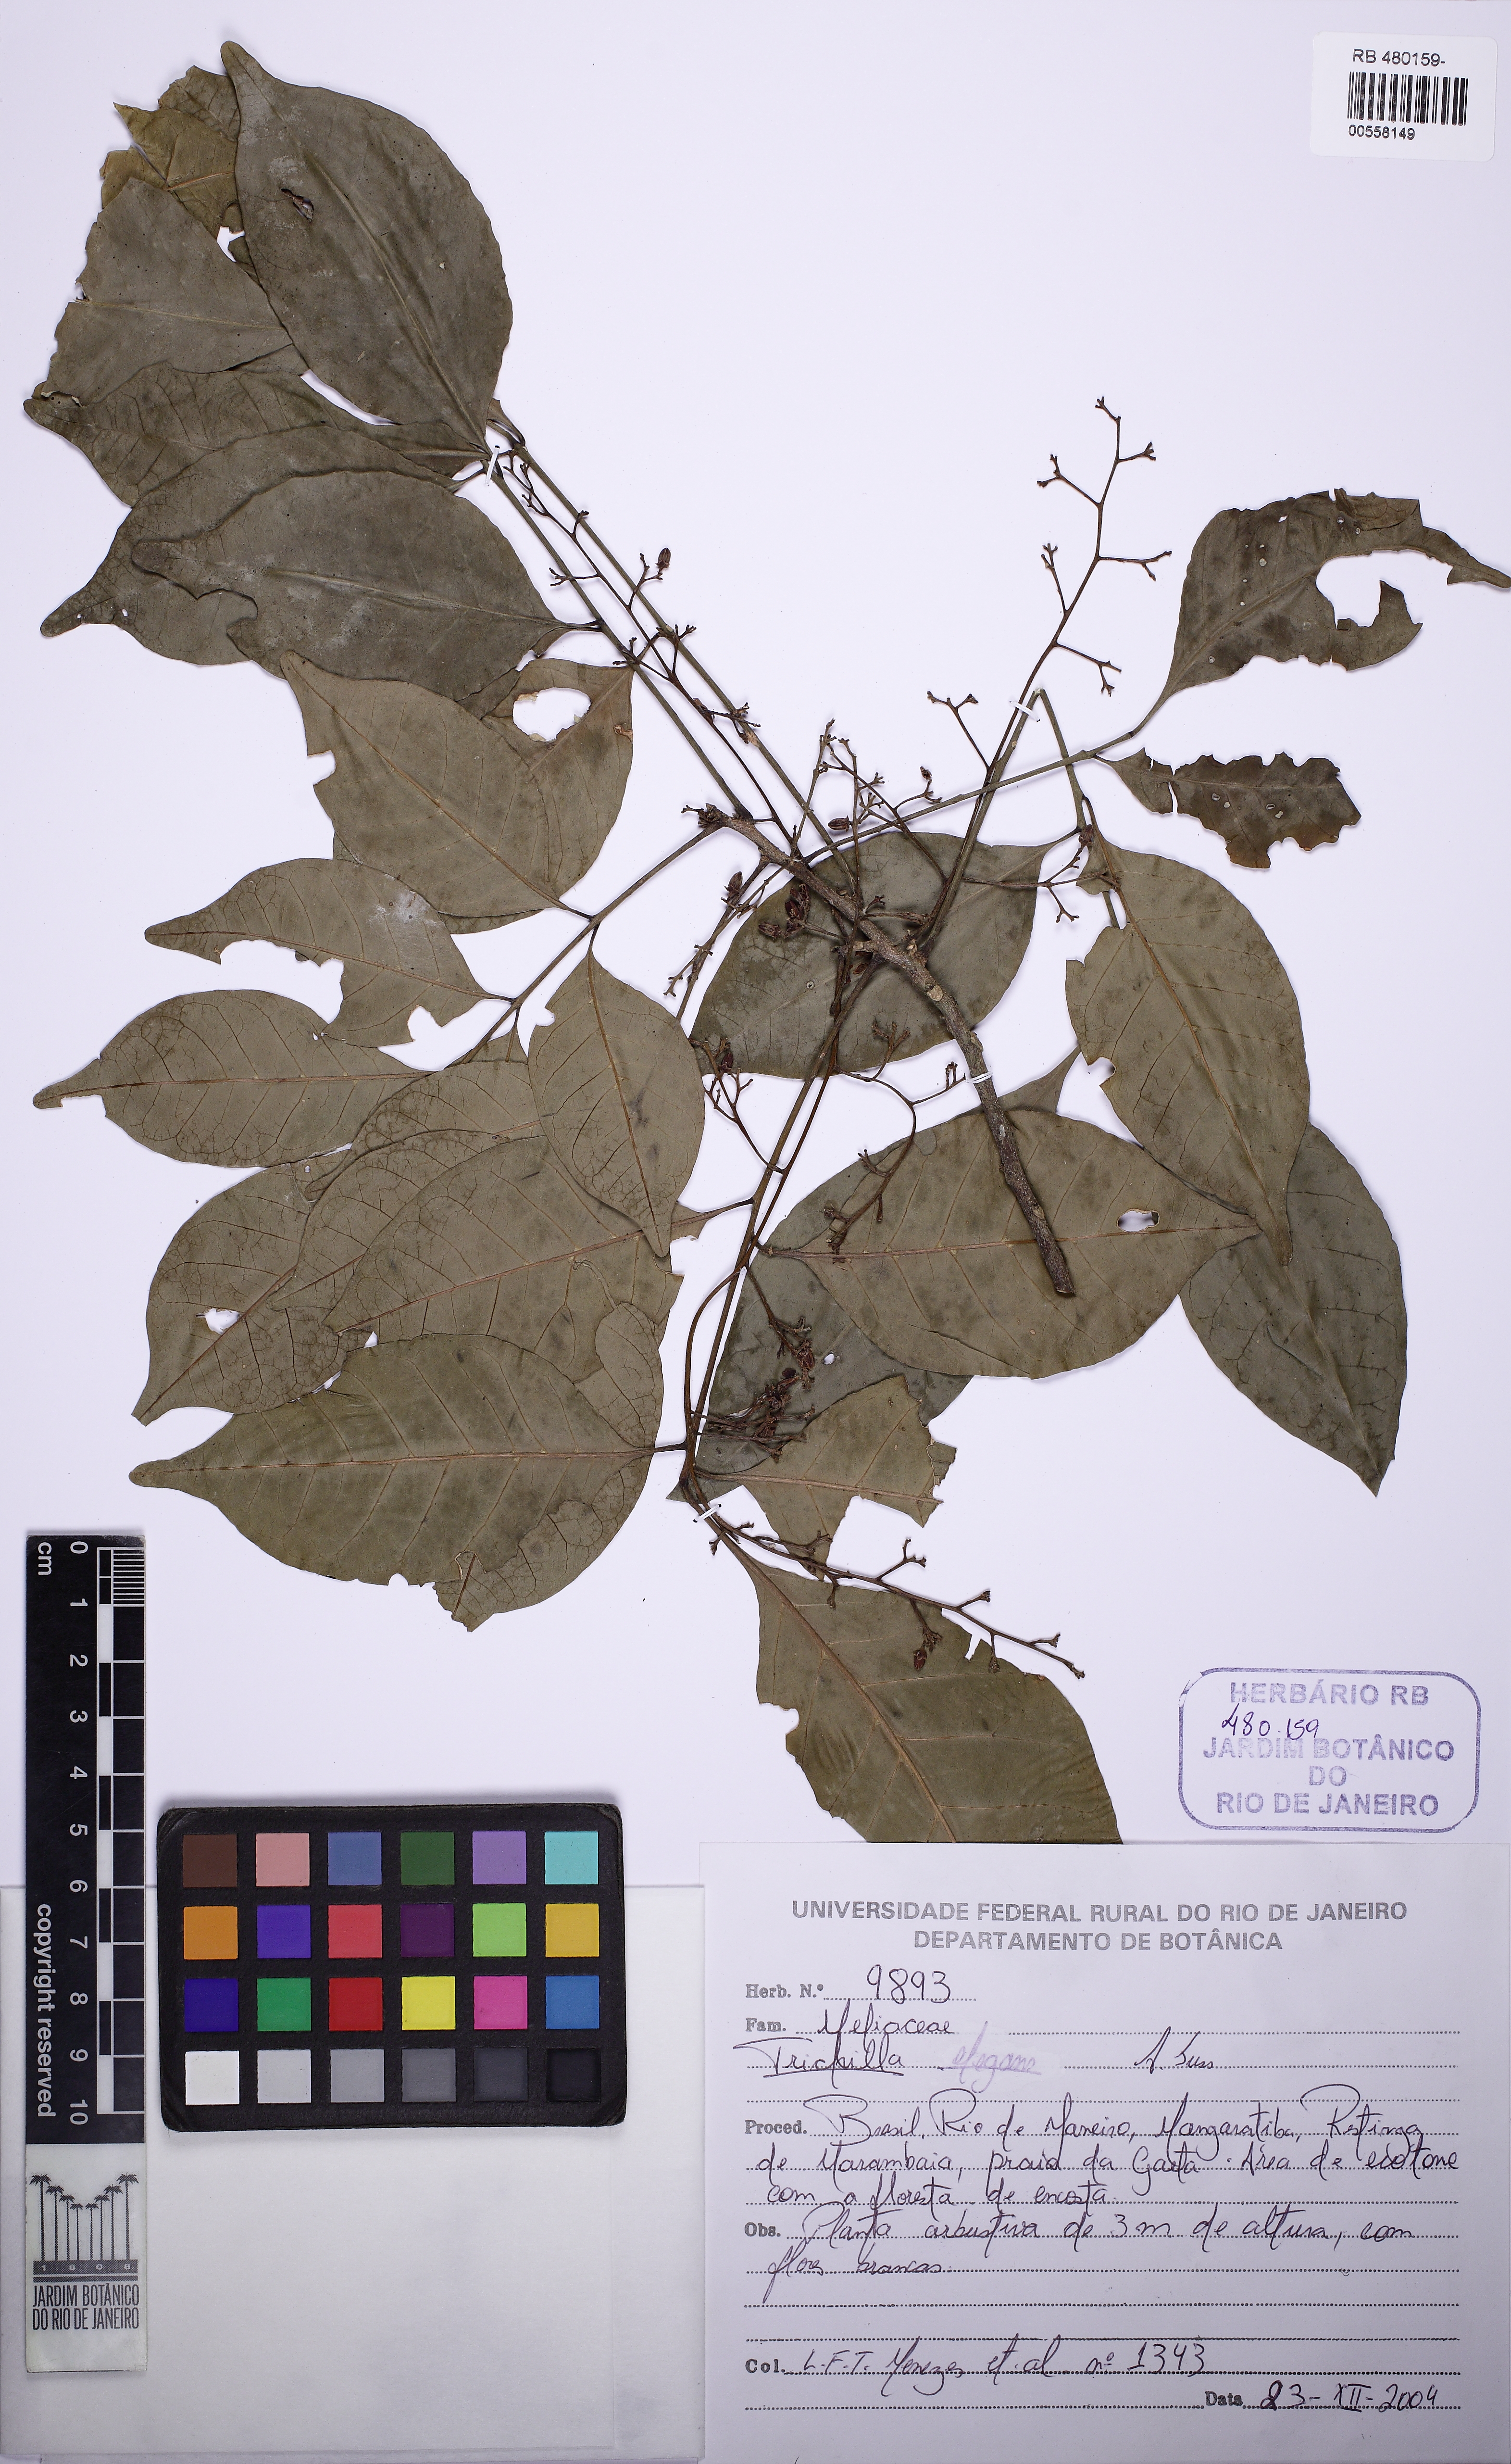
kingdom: Plantae
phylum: Tracheophyta
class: Magnoliopsida
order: Sapindales
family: Meliaceae
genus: Trichilia
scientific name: Trichilia
